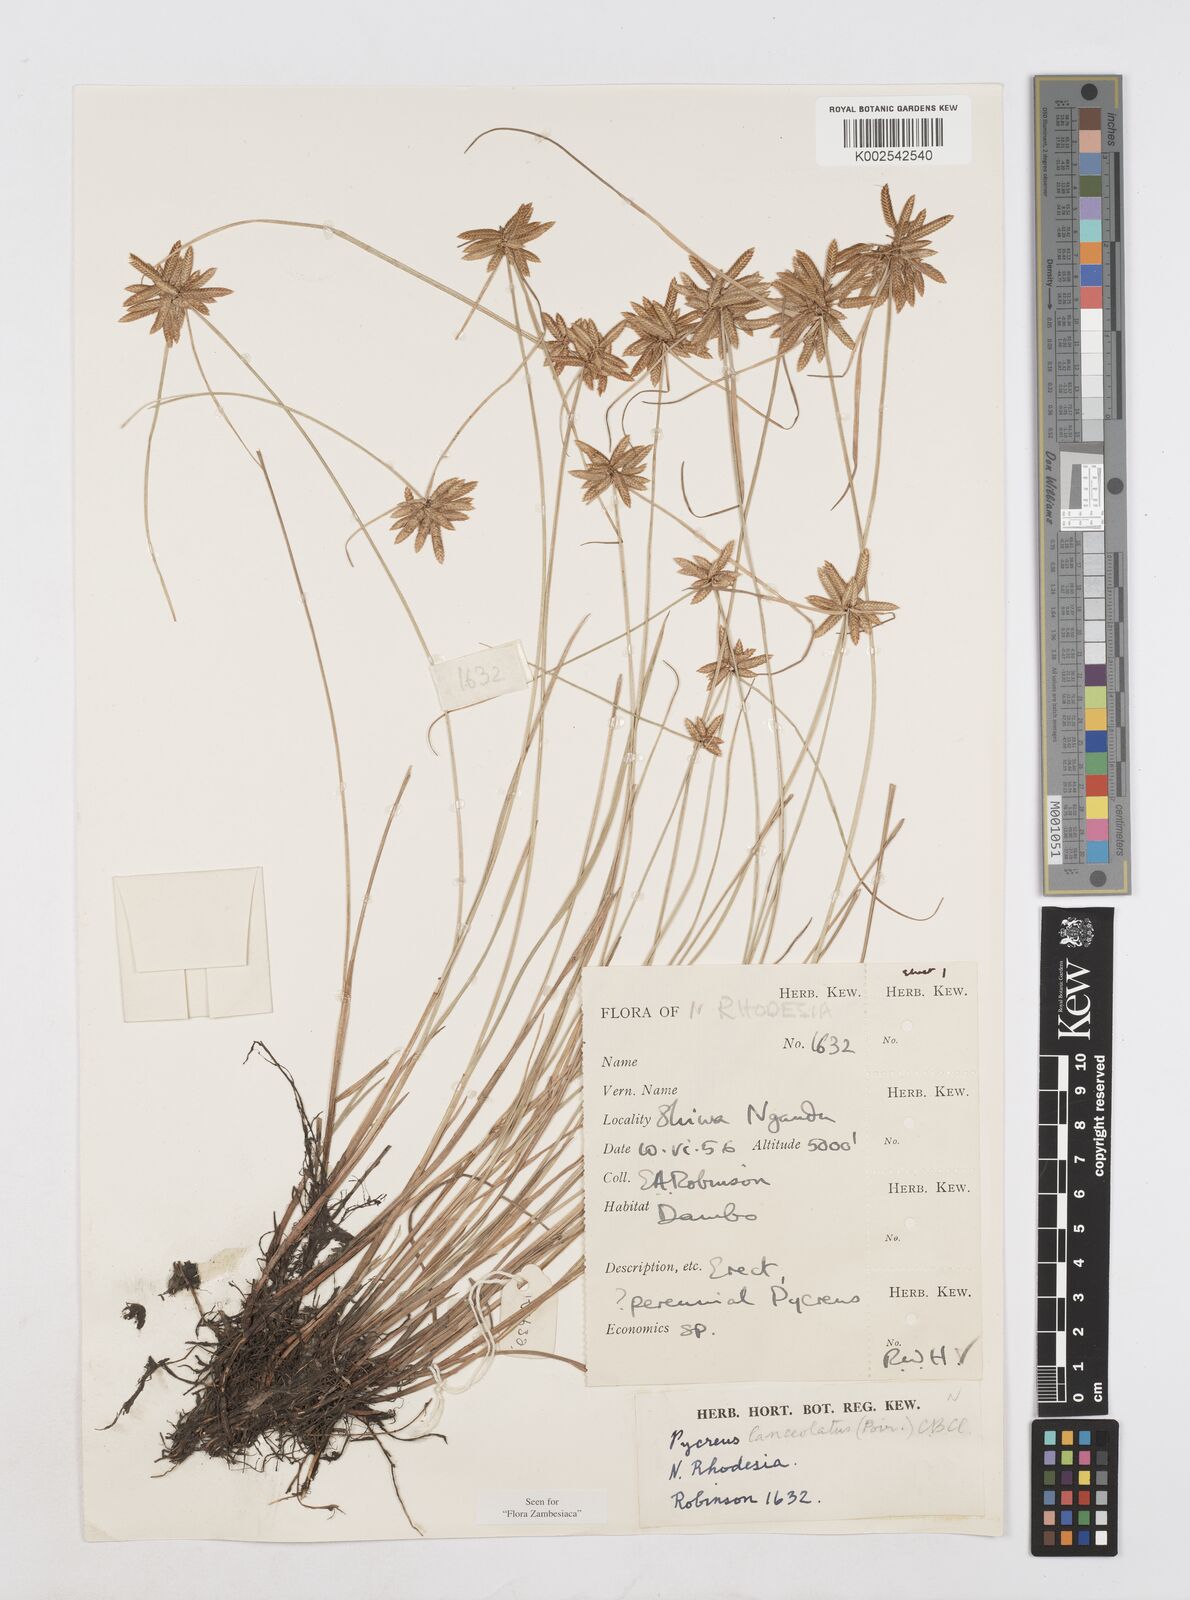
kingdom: Plantae
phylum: Tracheophyta
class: Liliopsida
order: Poales
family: Cyperaceae
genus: Cyperus
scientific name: Cyperus
